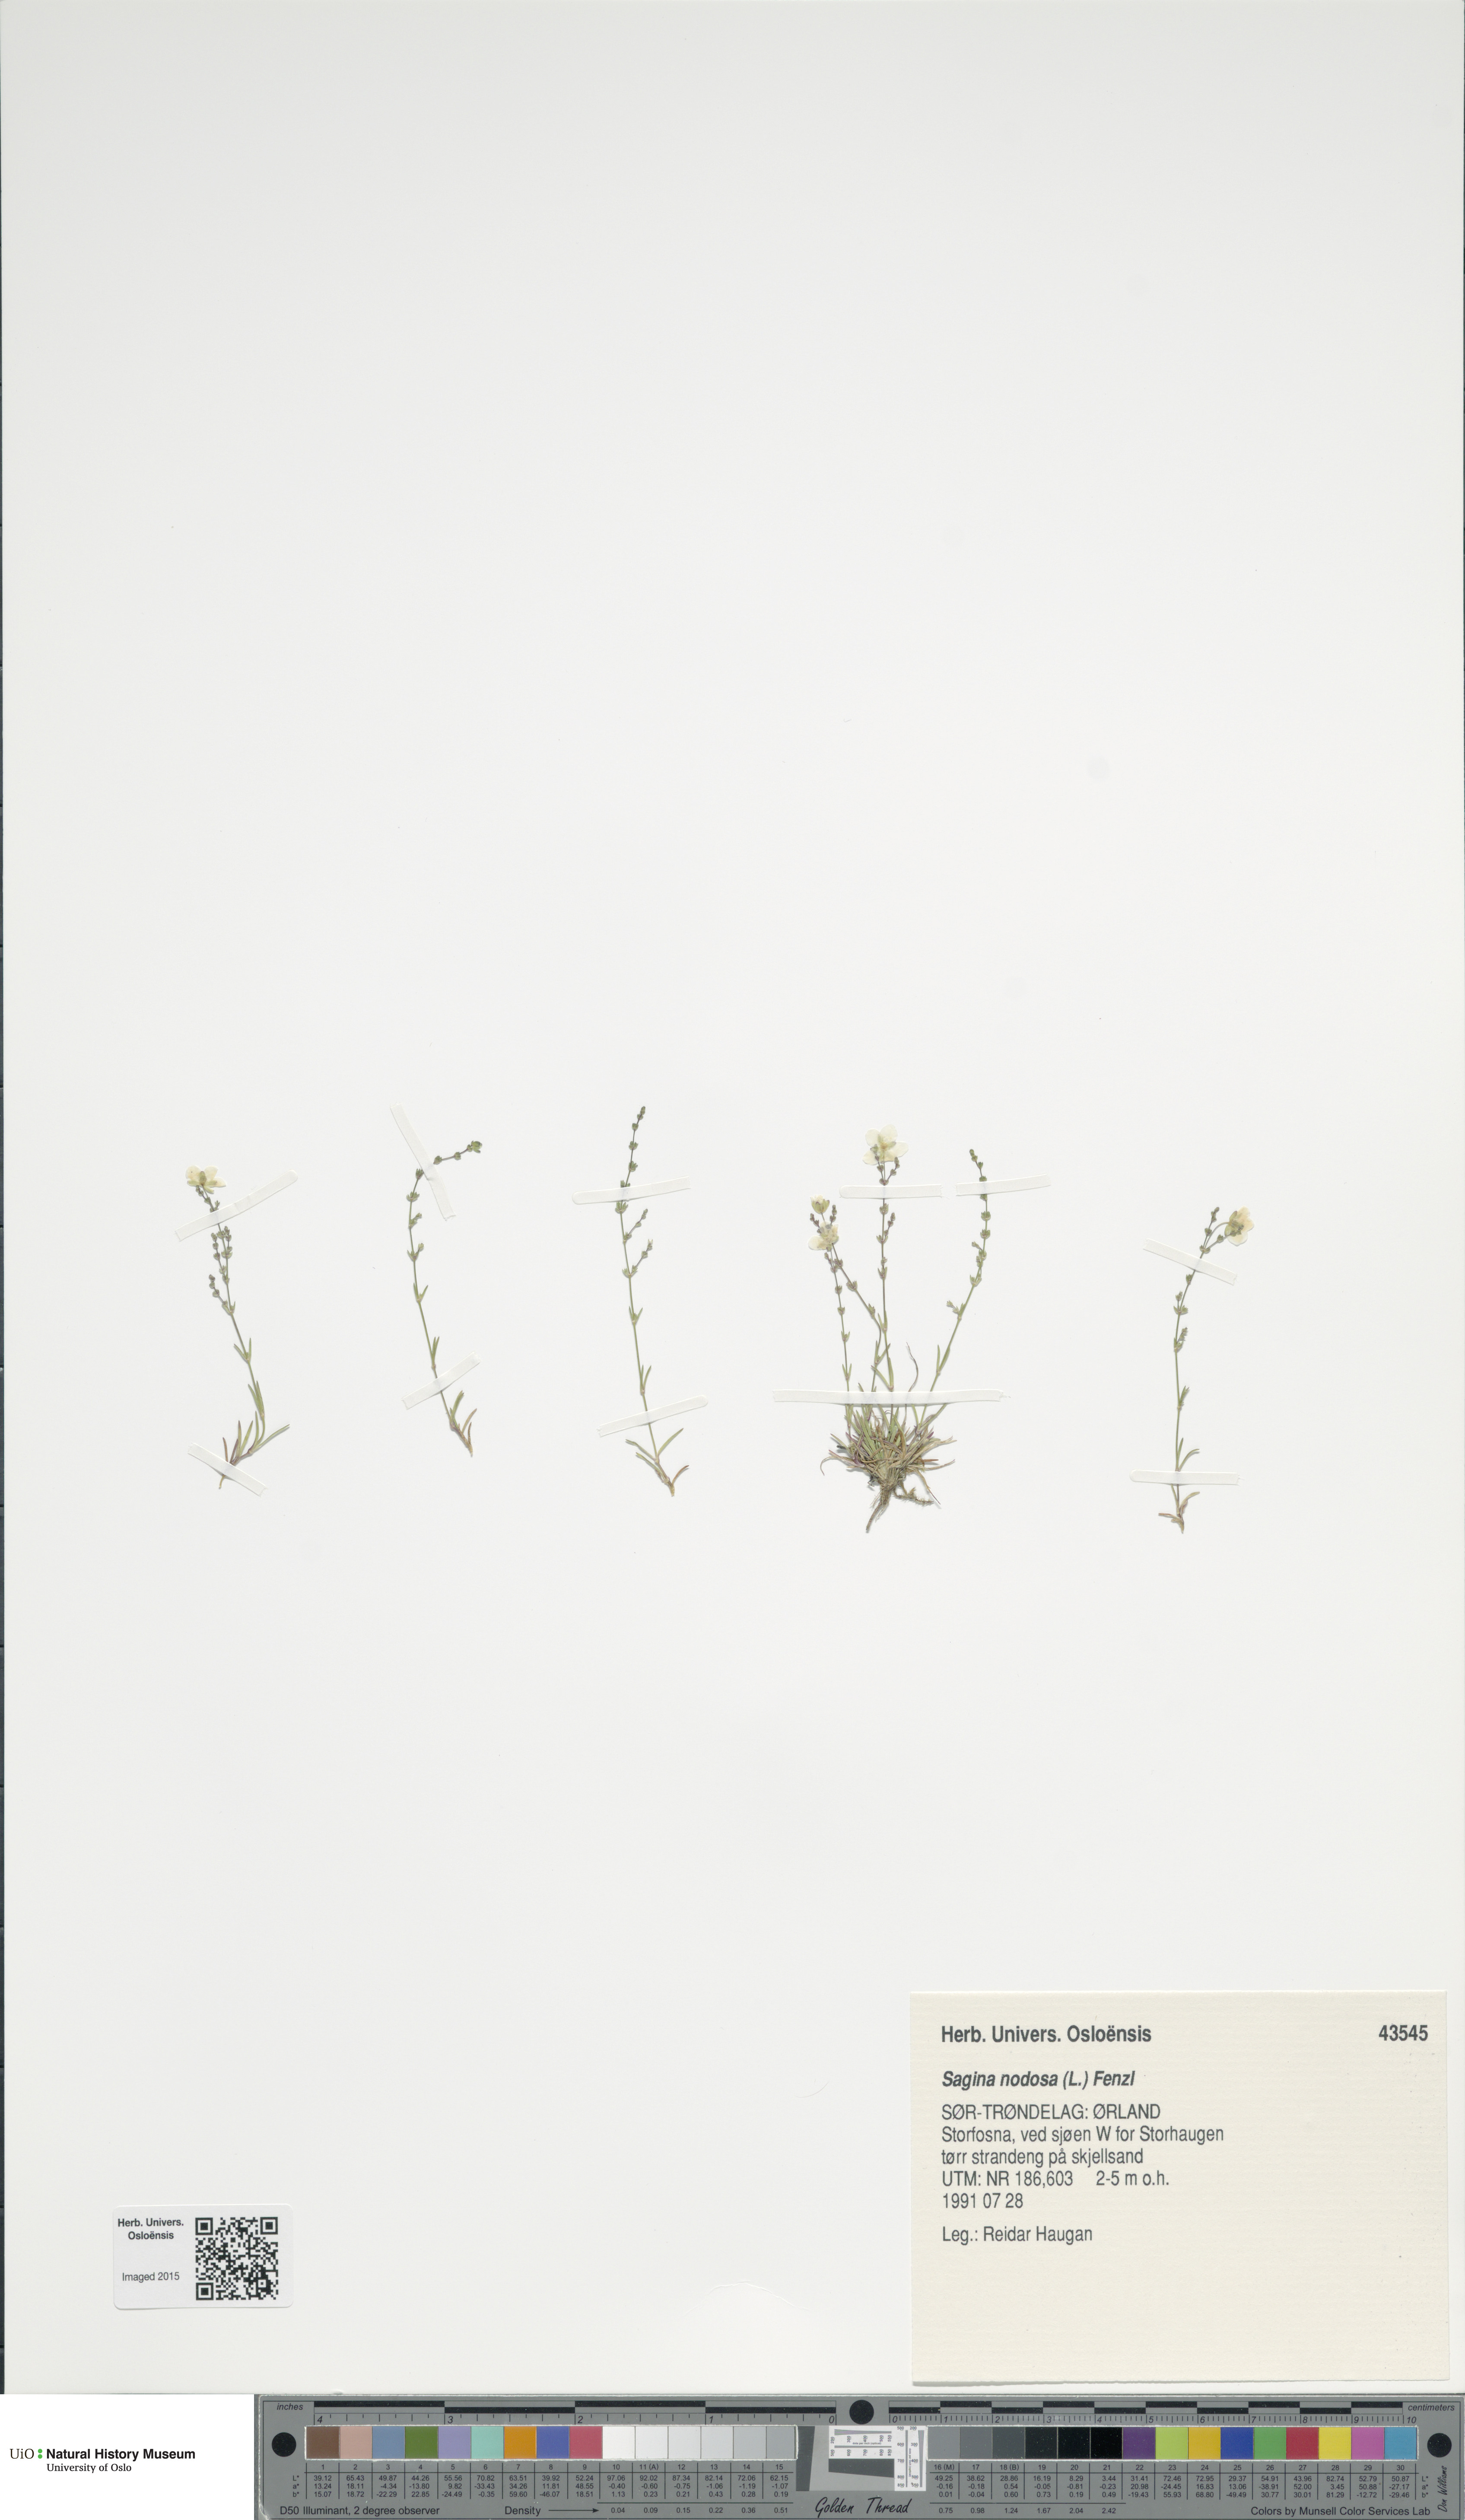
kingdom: Plantae
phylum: Tracheophyta
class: Magnoliopsida
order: Caryophyllales
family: Caryophyllaceae
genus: Sagina
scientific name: Sagina nodosa
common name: Knotted pearlwort
